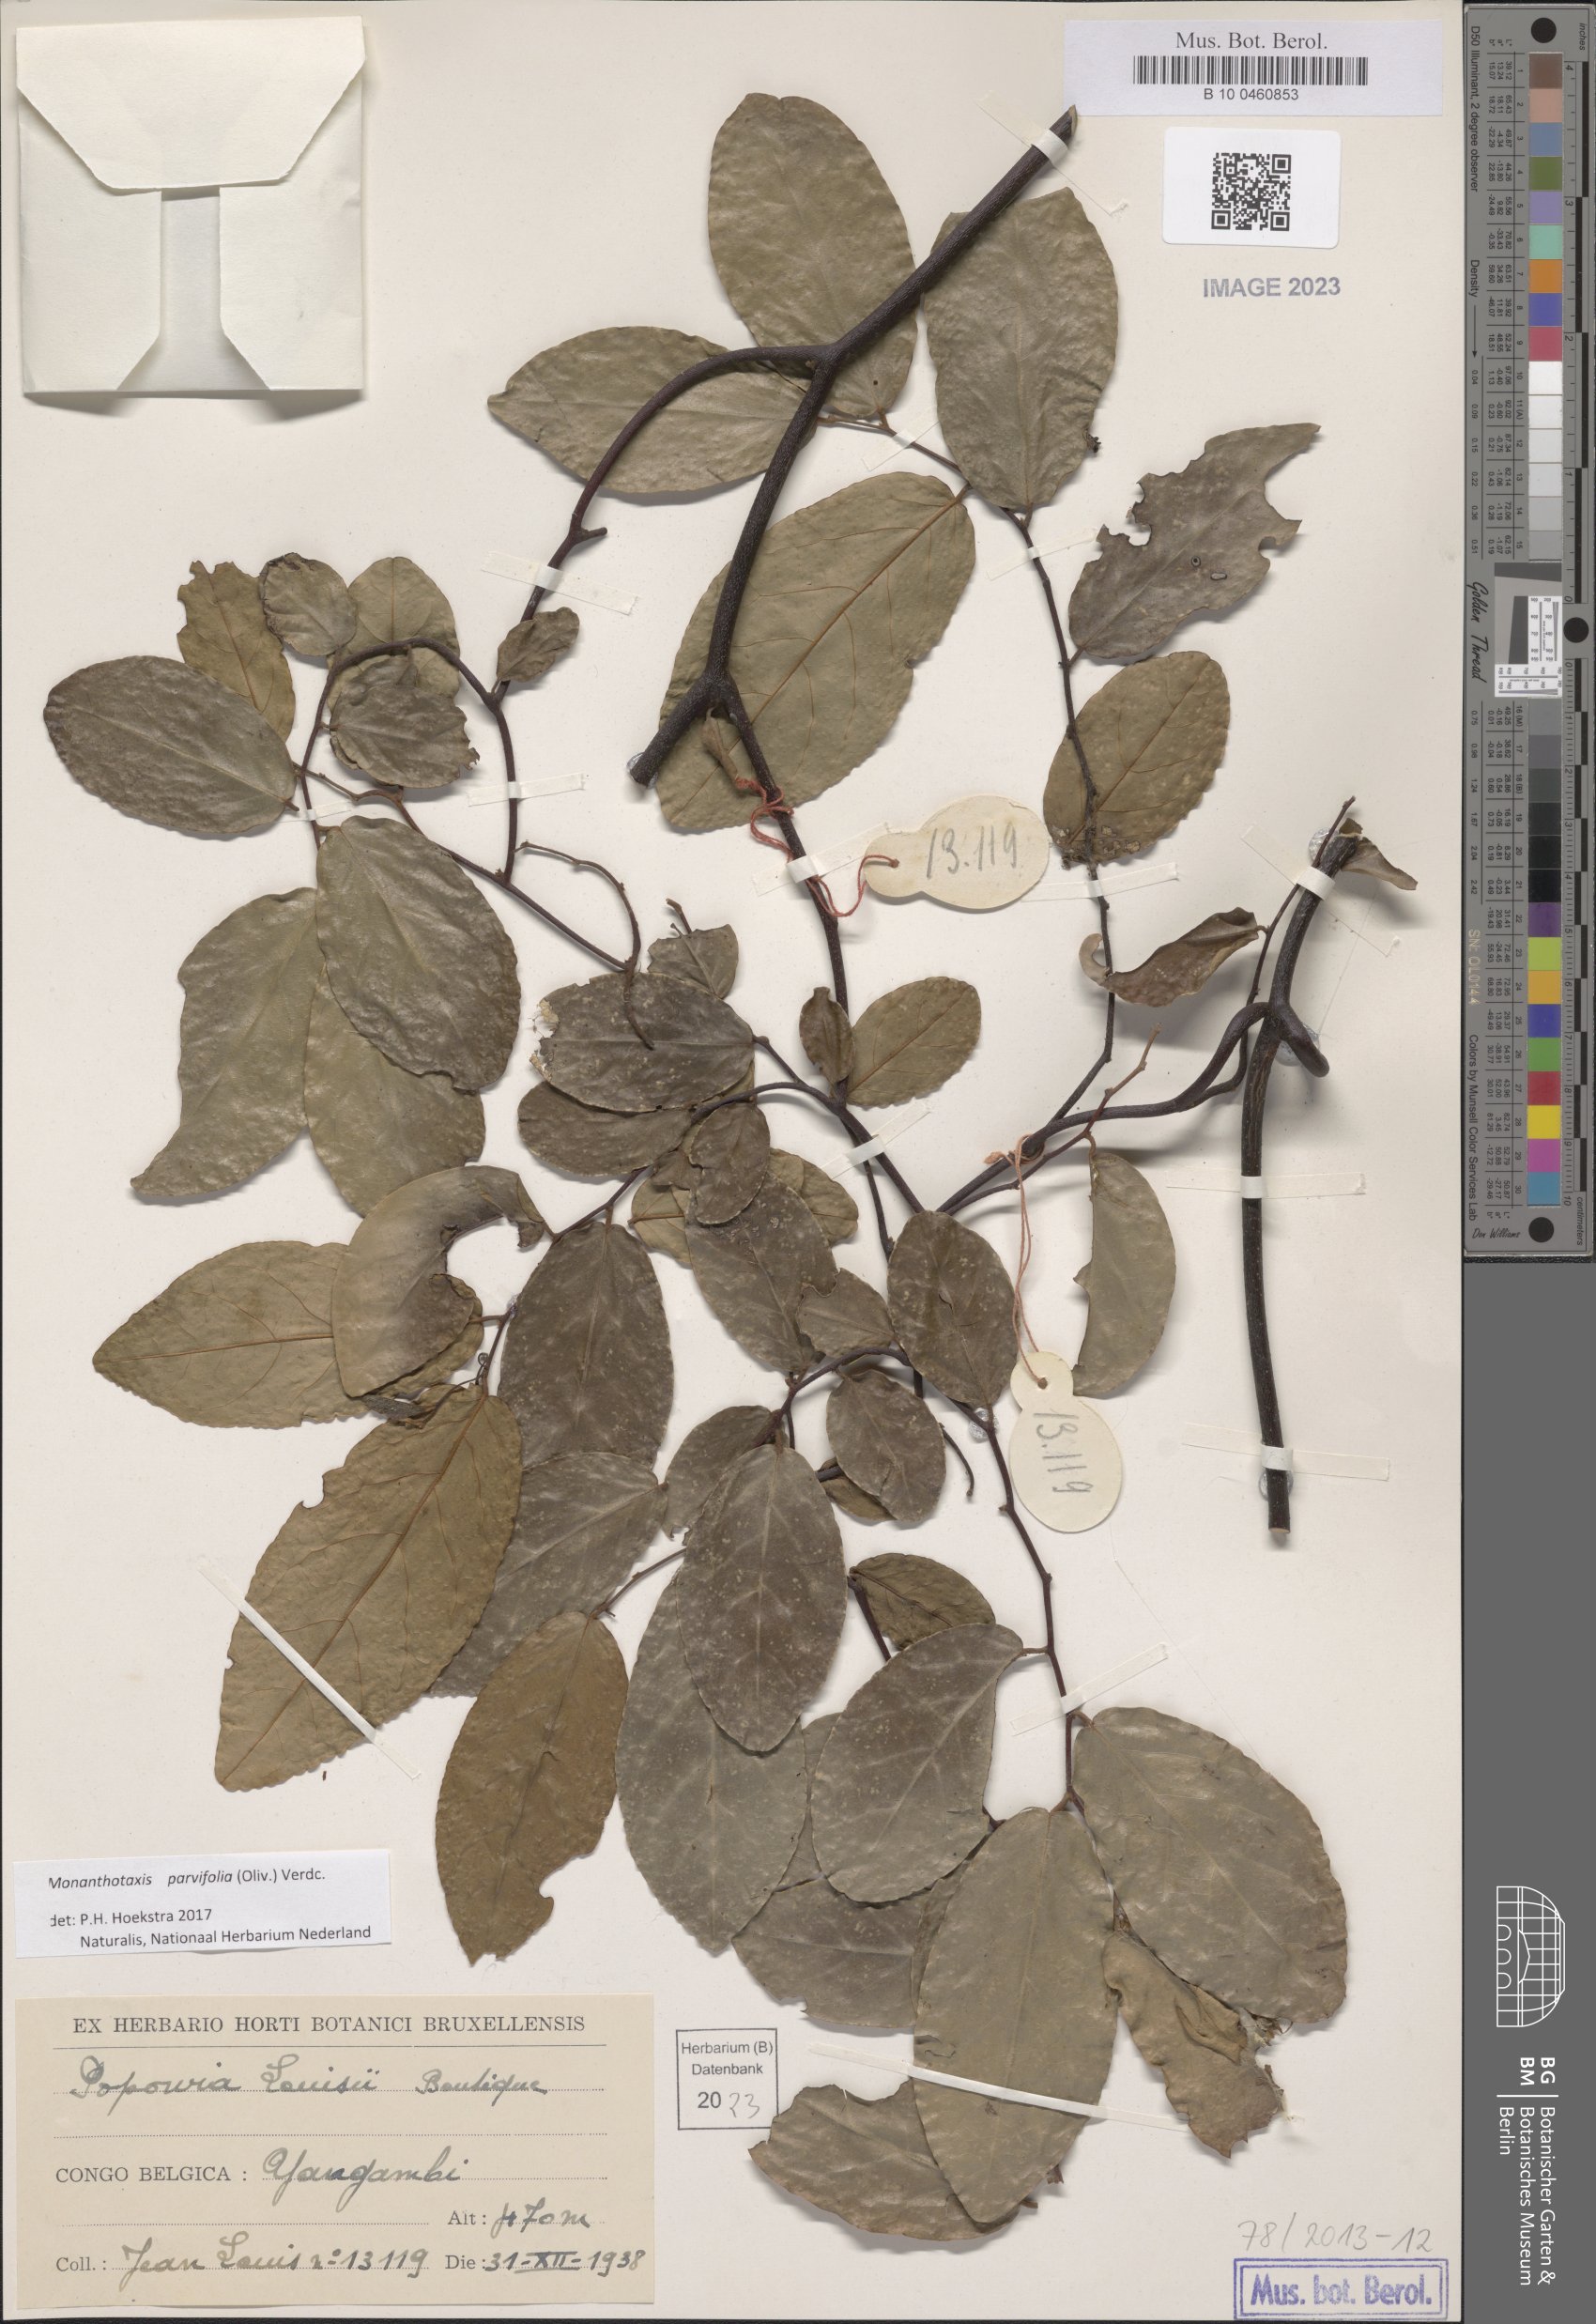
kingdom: Plantae
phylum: Tracheophyta
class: Magnoliopsida
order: Magnoliales
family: Annonaceae
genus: Monanthotaxis
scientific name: Monanthotaxis parvifolia
